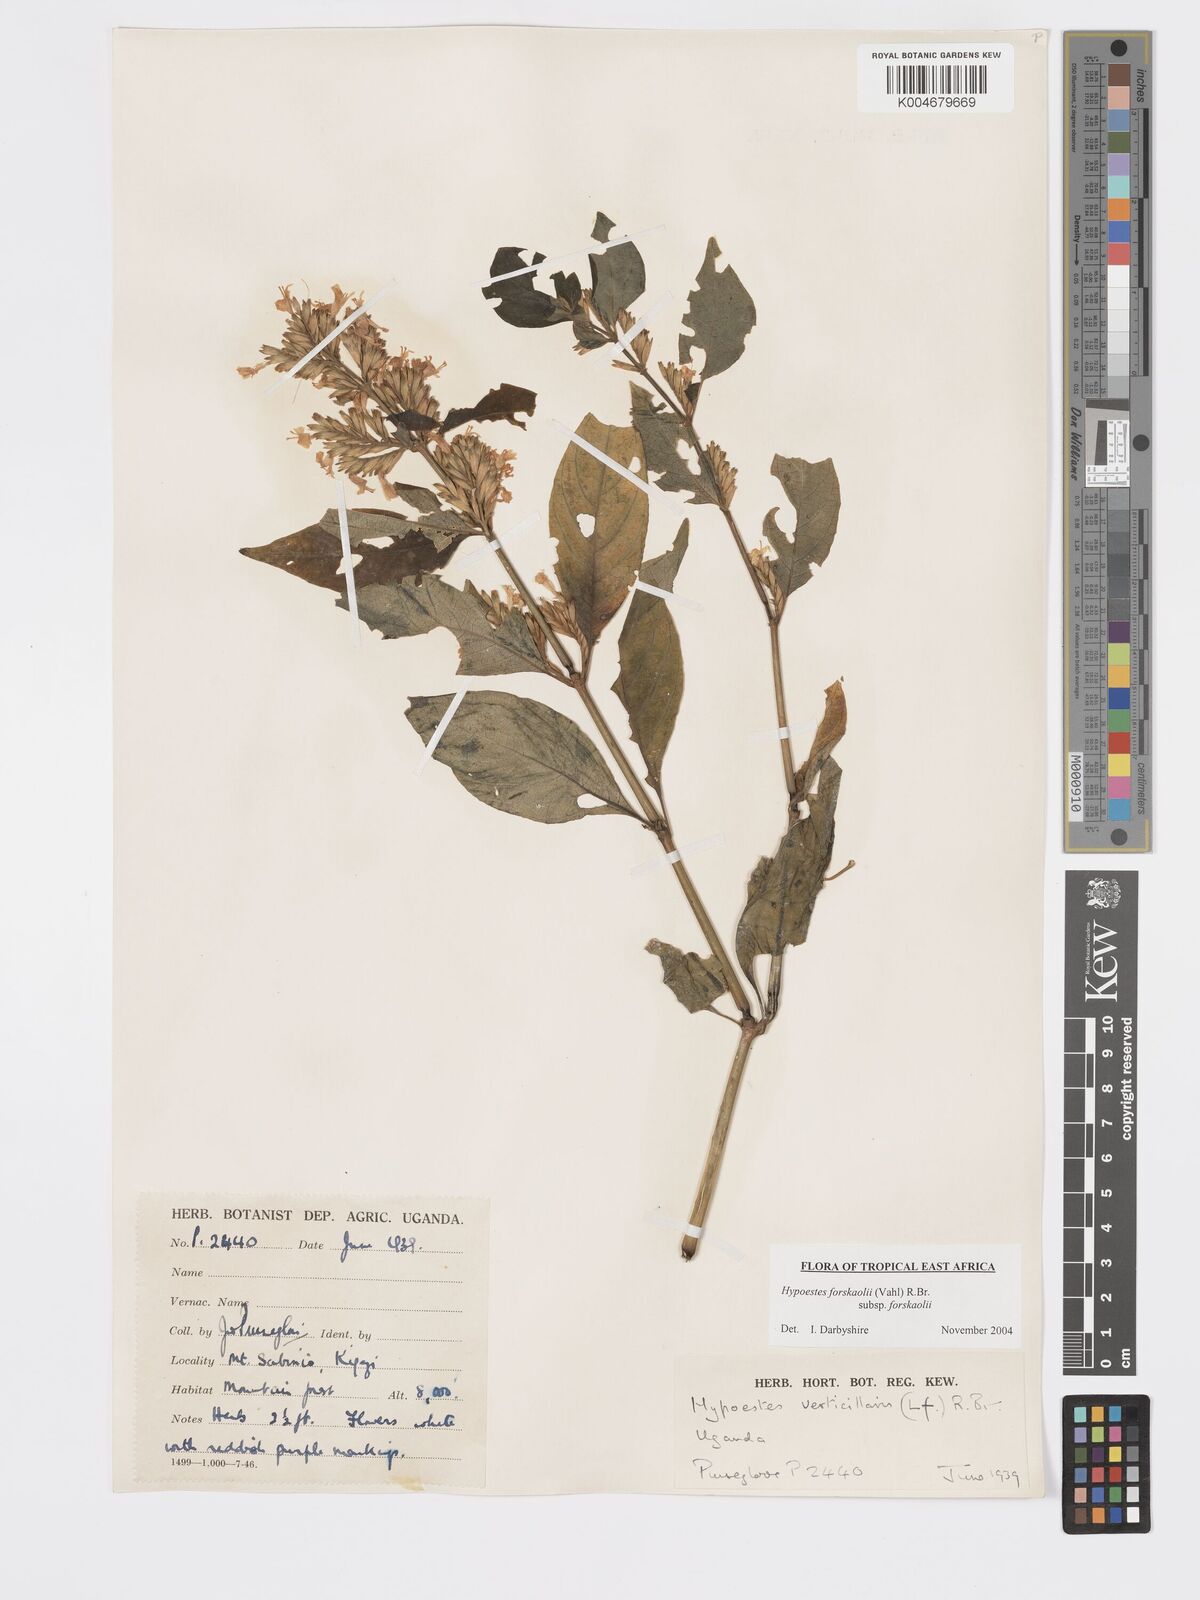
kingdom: Plantae
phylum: Tracheophyta
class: Magnoliopsida
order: Lamiales
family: Acanthaceae
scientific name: Acanthaceae
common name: Acanthaceae
